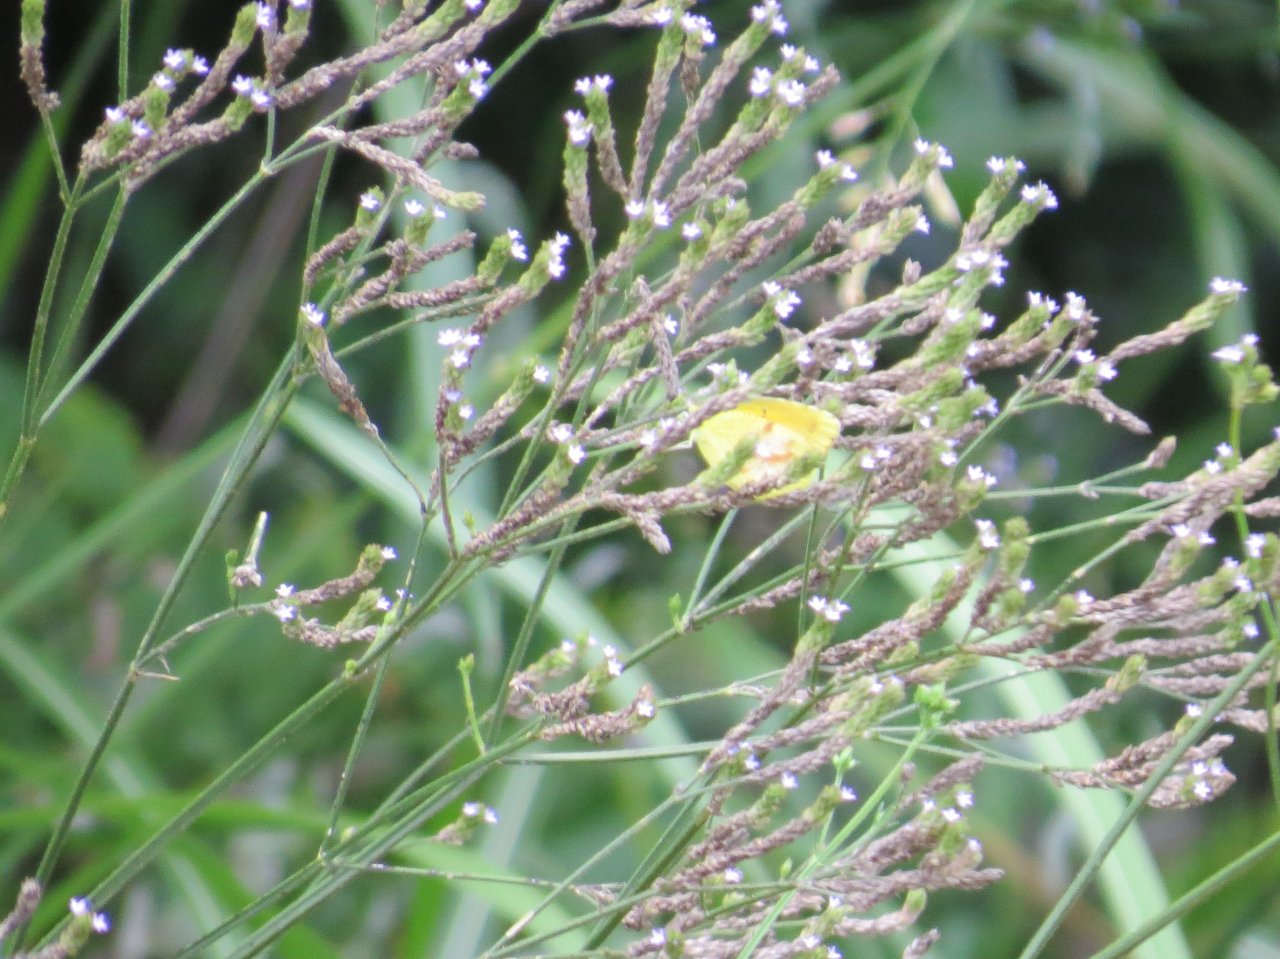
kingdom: Animalia
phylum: Arthropoda
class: Insecta
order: Lepidoptera
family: Pieridae
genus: Abaeis
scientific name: Abaeis nicippe
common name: Sleepy Orange
